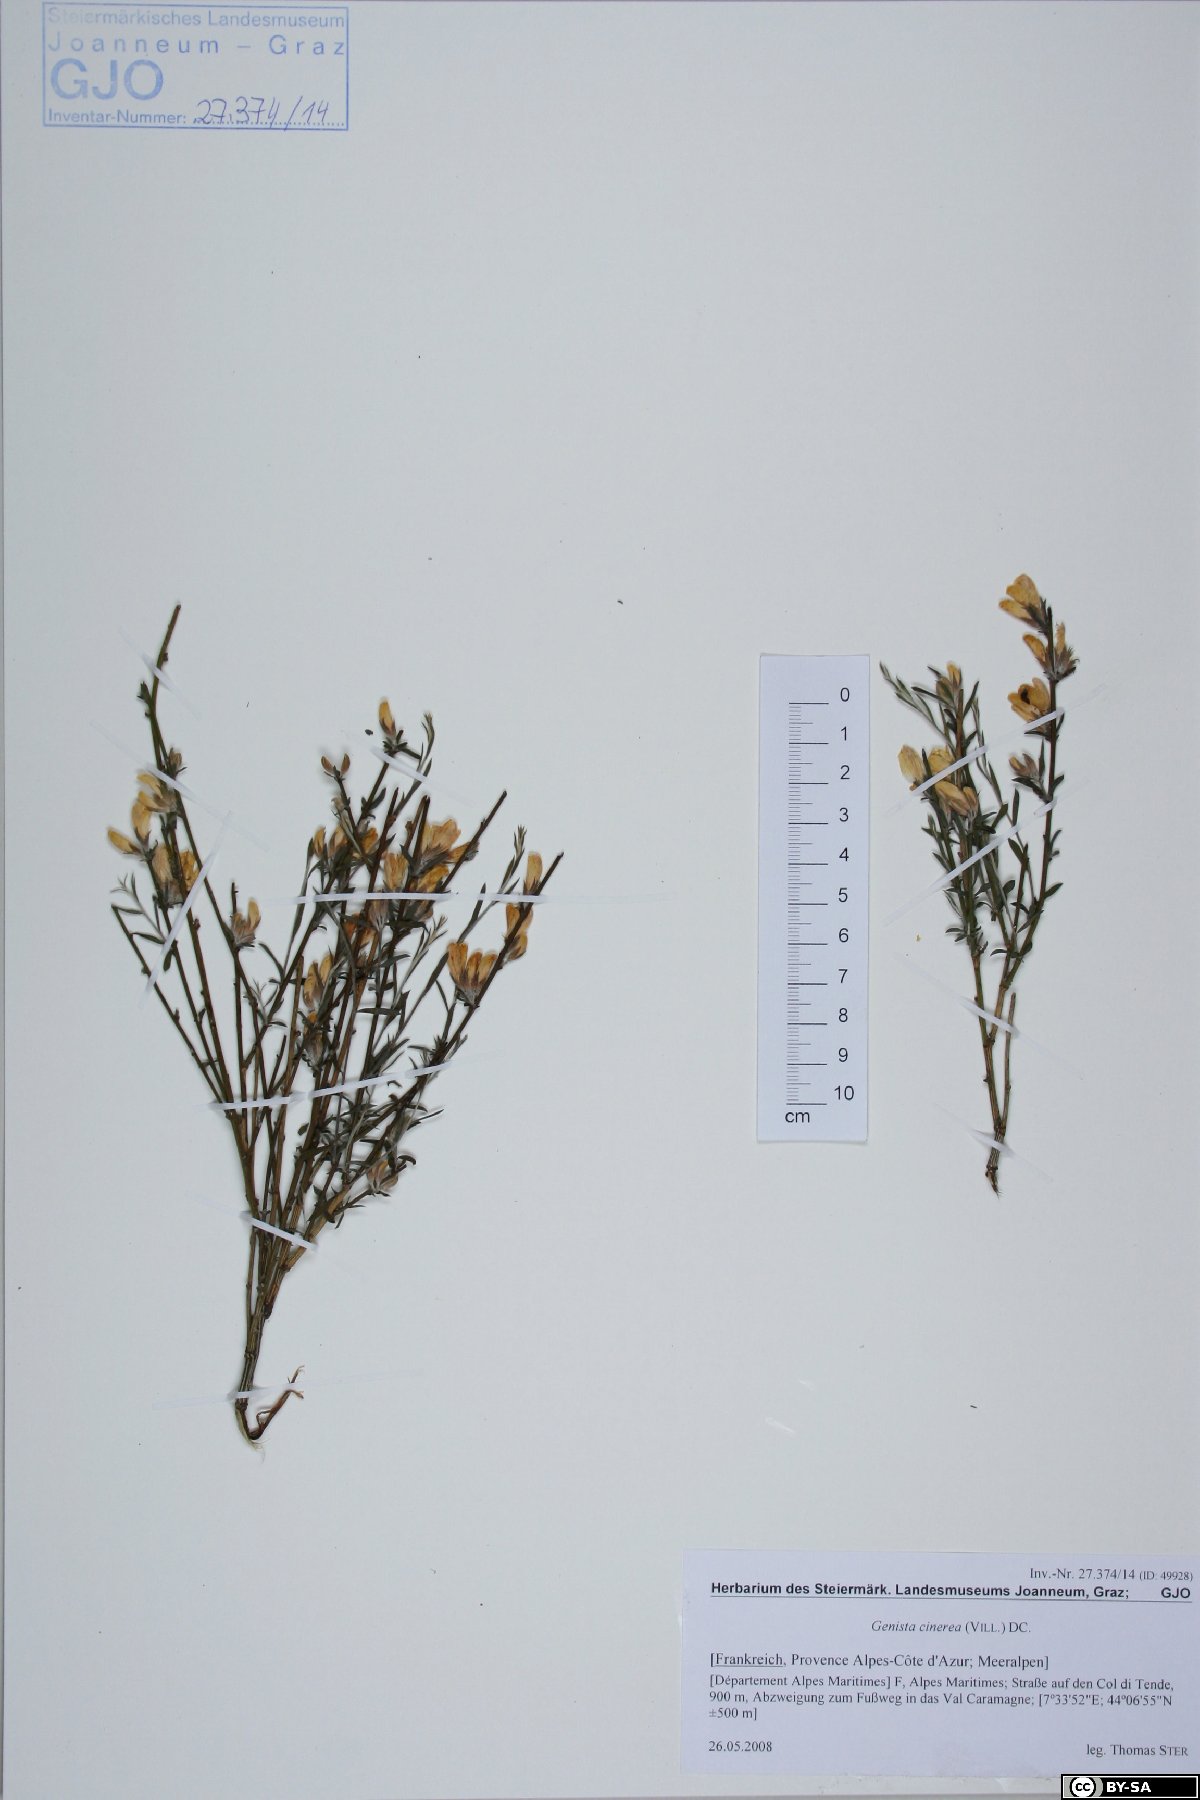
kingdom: Plantae
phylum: Tracheophyta
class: Magnoliopsida
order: Fabales
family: Fabaceae
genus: Genista
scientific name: Genista cinerea
